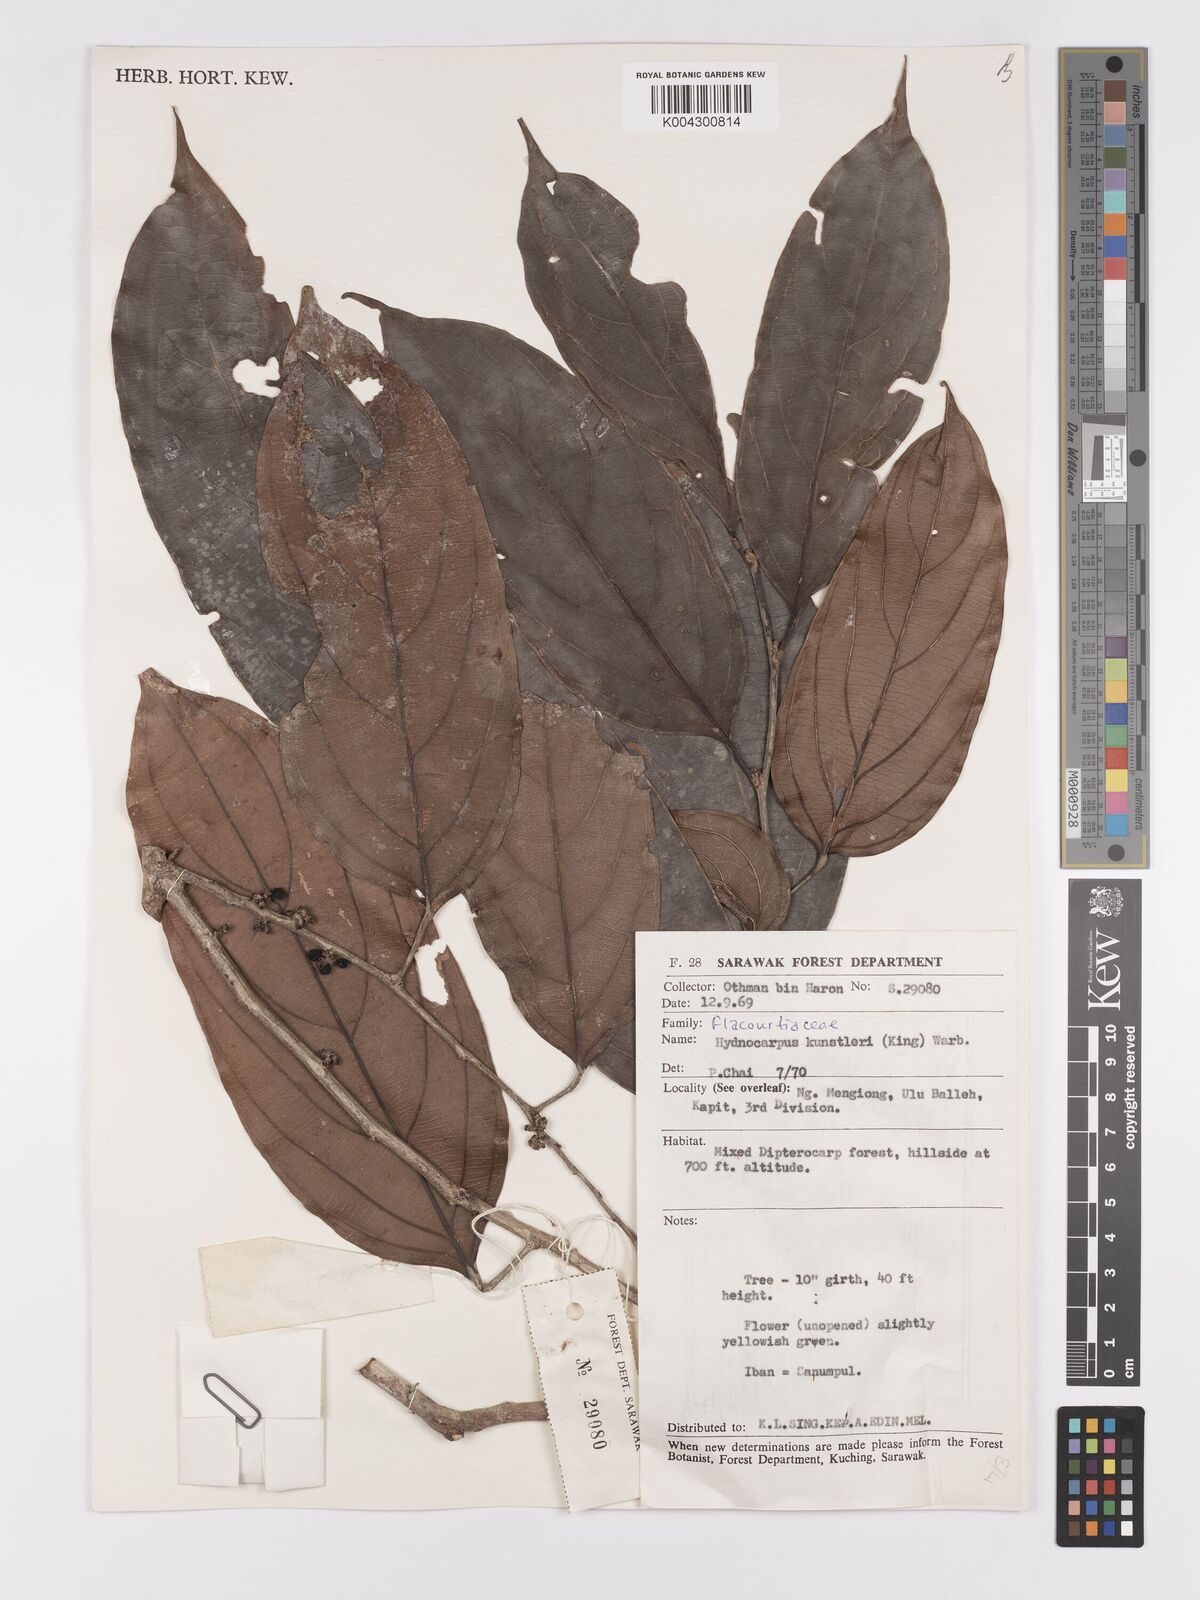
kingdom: Plantae
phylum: Tracheophyta
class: Magnoliopsida
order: Malpighiales
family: Achariaceae
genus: Hydnocarpus
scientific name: Hydnocarpus kunstleri
